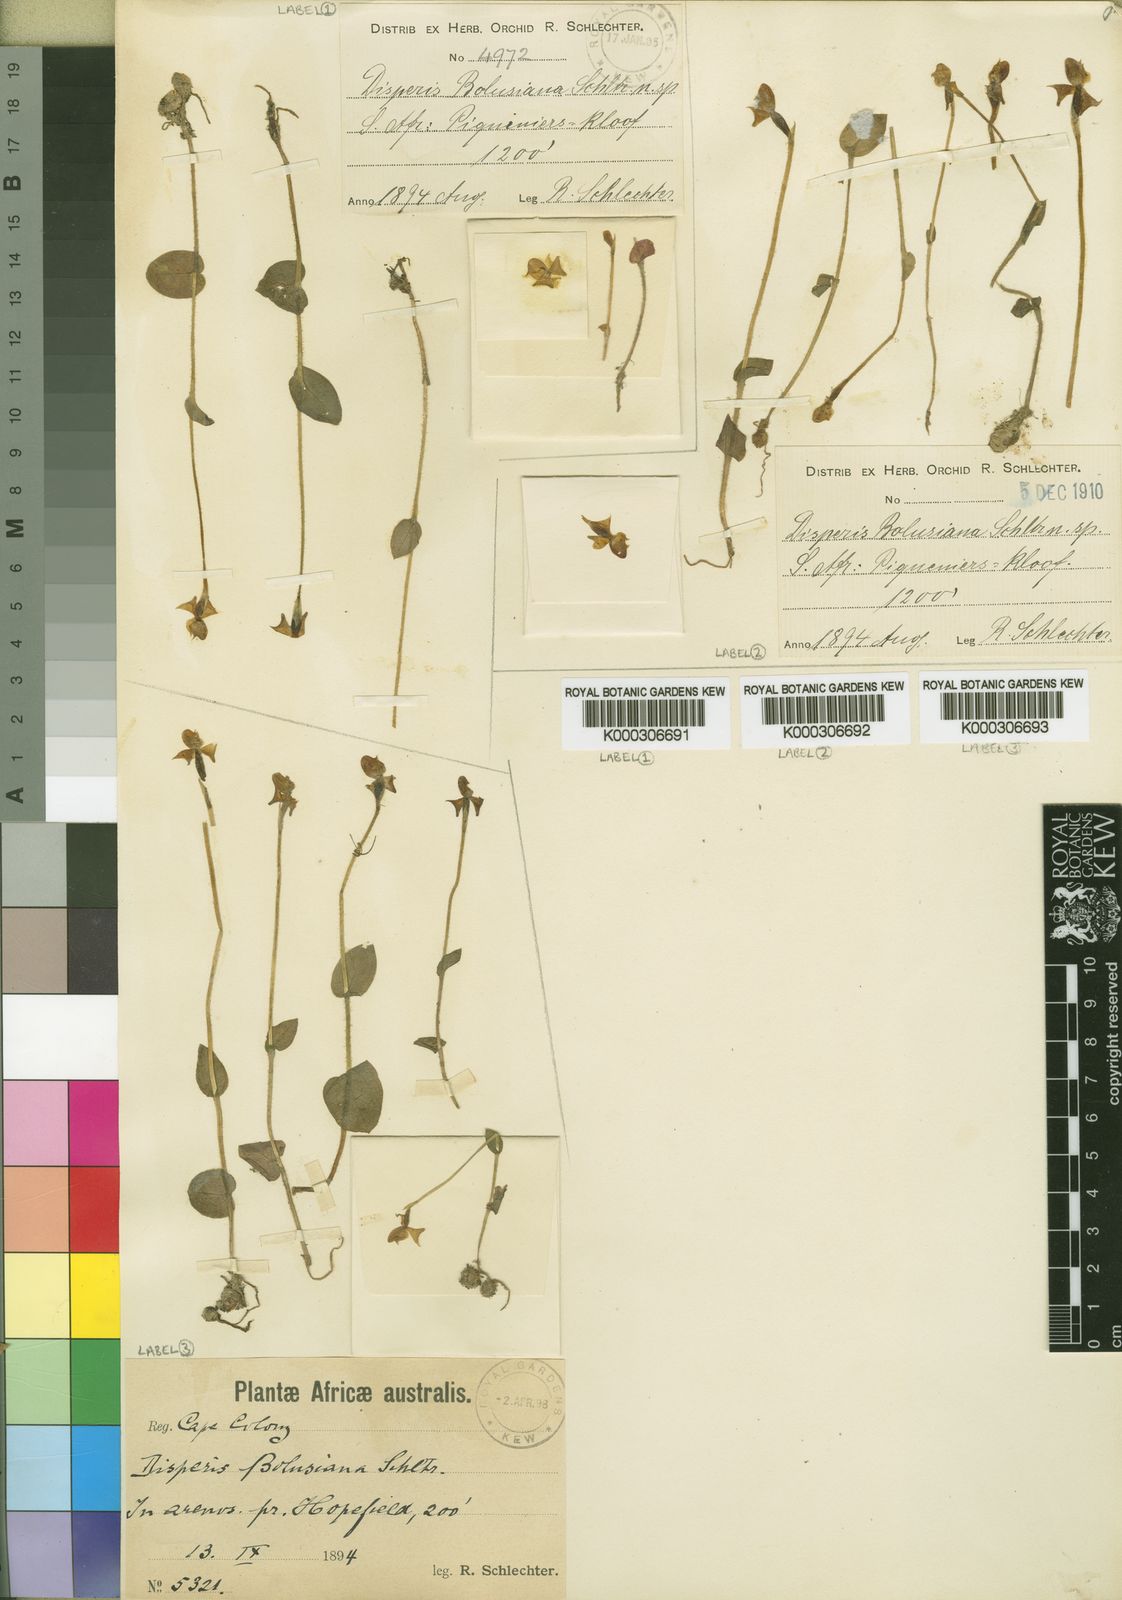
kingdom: Plantae
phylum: Tracheophyta
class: Liliopsida
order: Asparagales
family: Orchidaceae
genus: Disperis
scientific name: Disperis
